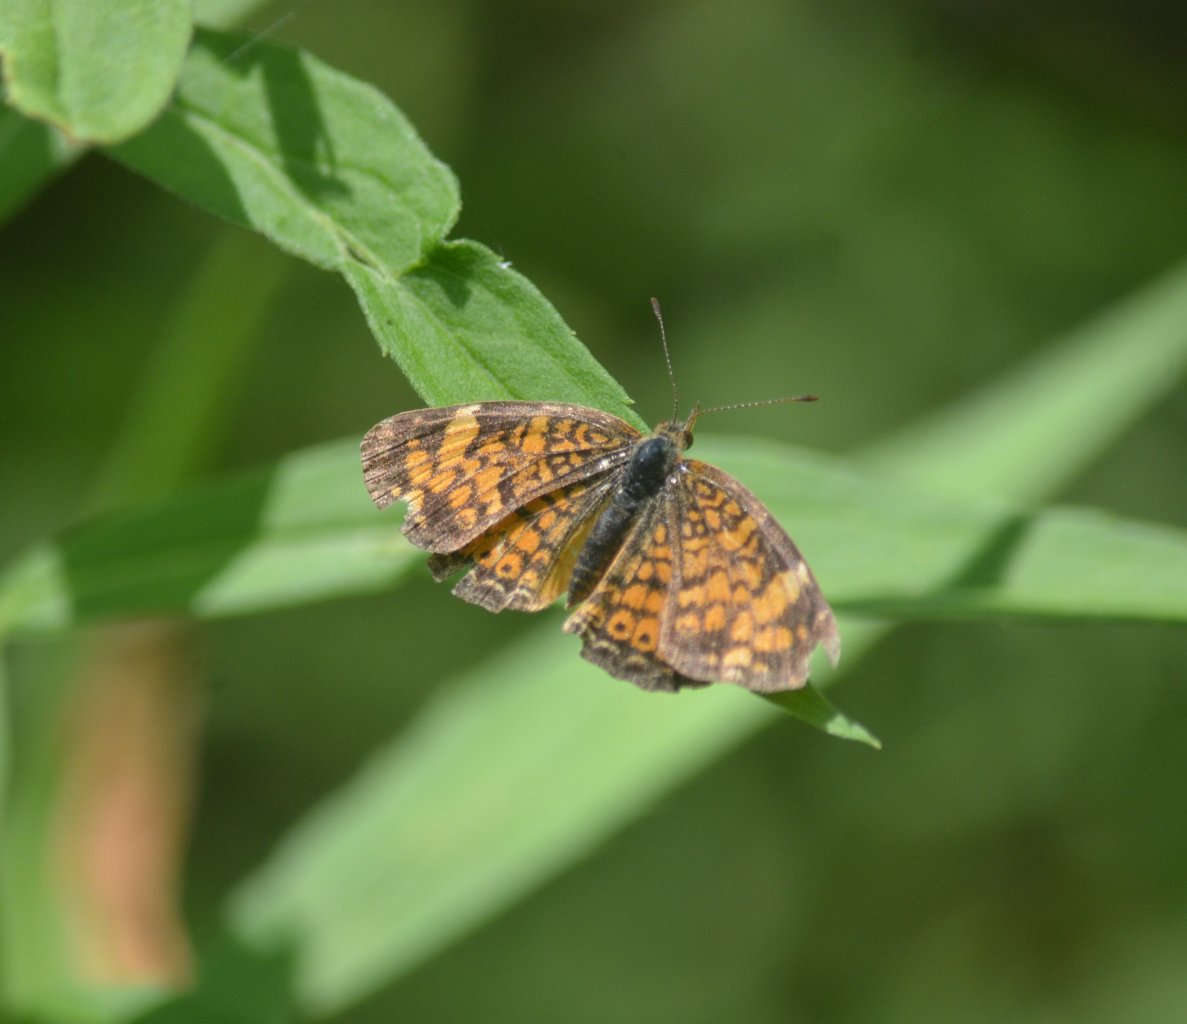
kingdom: Animalia
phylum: Arthropoda
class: Insecta
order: Lepidoptera
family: Nymphalidae
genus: Phyciodes
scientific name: Phyciodes tharos
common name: Pearl Crescent
